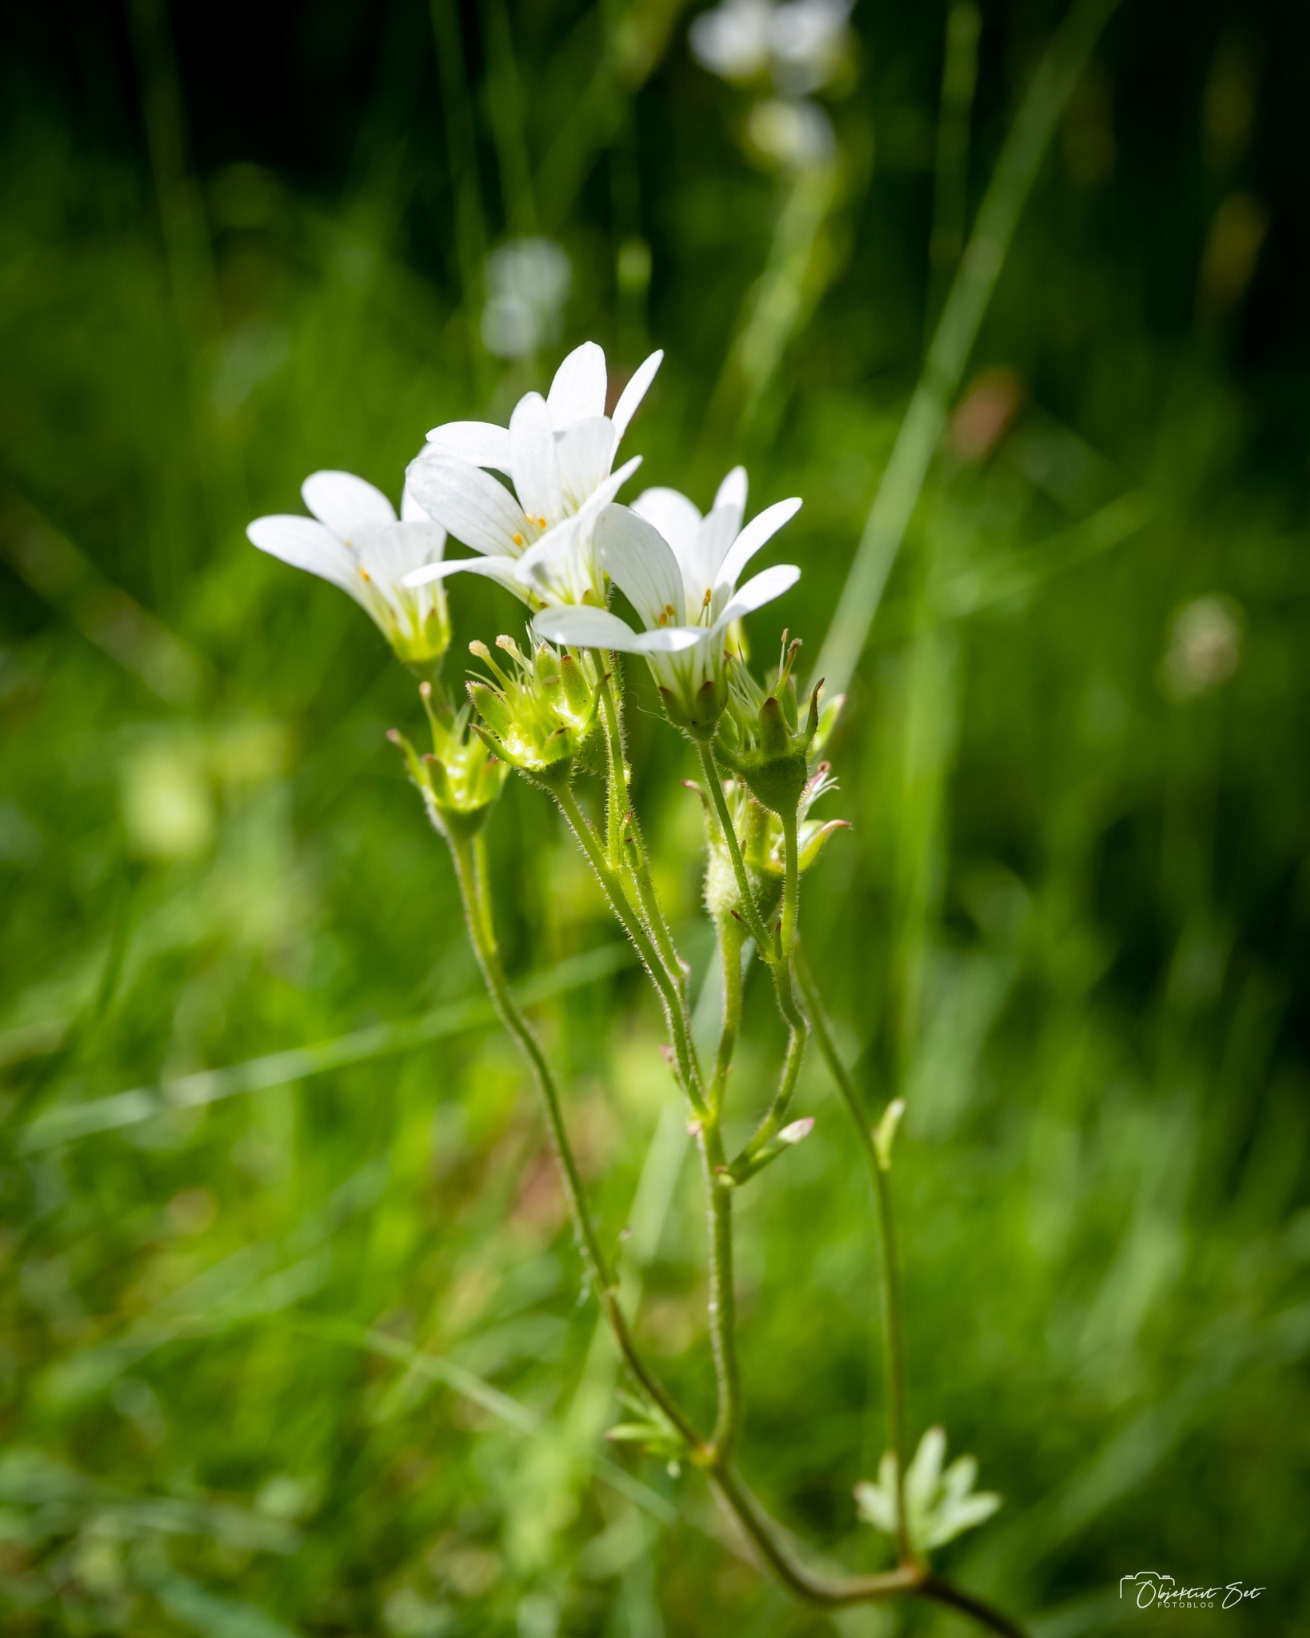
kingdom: Plantae
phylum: Tracheophyta
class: Magnoliopsida
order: Saxifragales
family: Saxifragaceae
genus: Saxifraga
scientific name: Saxifraga granulata
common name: Kornet stenbræk
